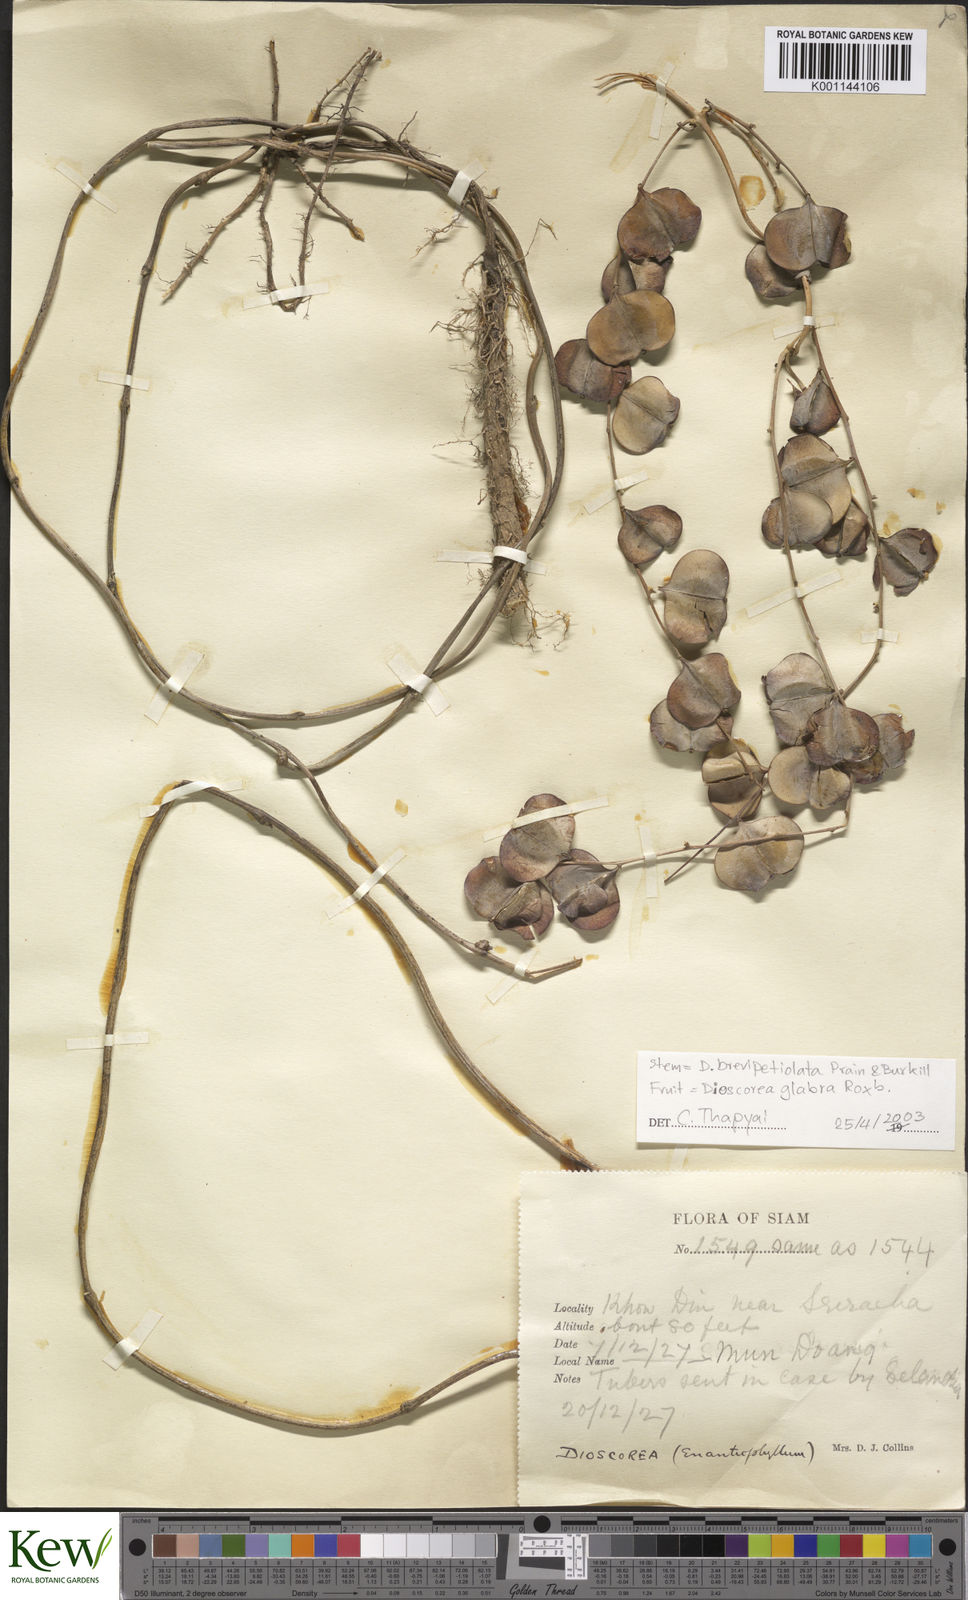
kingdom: Plantae
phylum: Tracheophyta
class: Liliopsida
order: Dioscoreales
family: Dioscoreaceae
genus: Dioscorea
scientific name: Dioscorea
